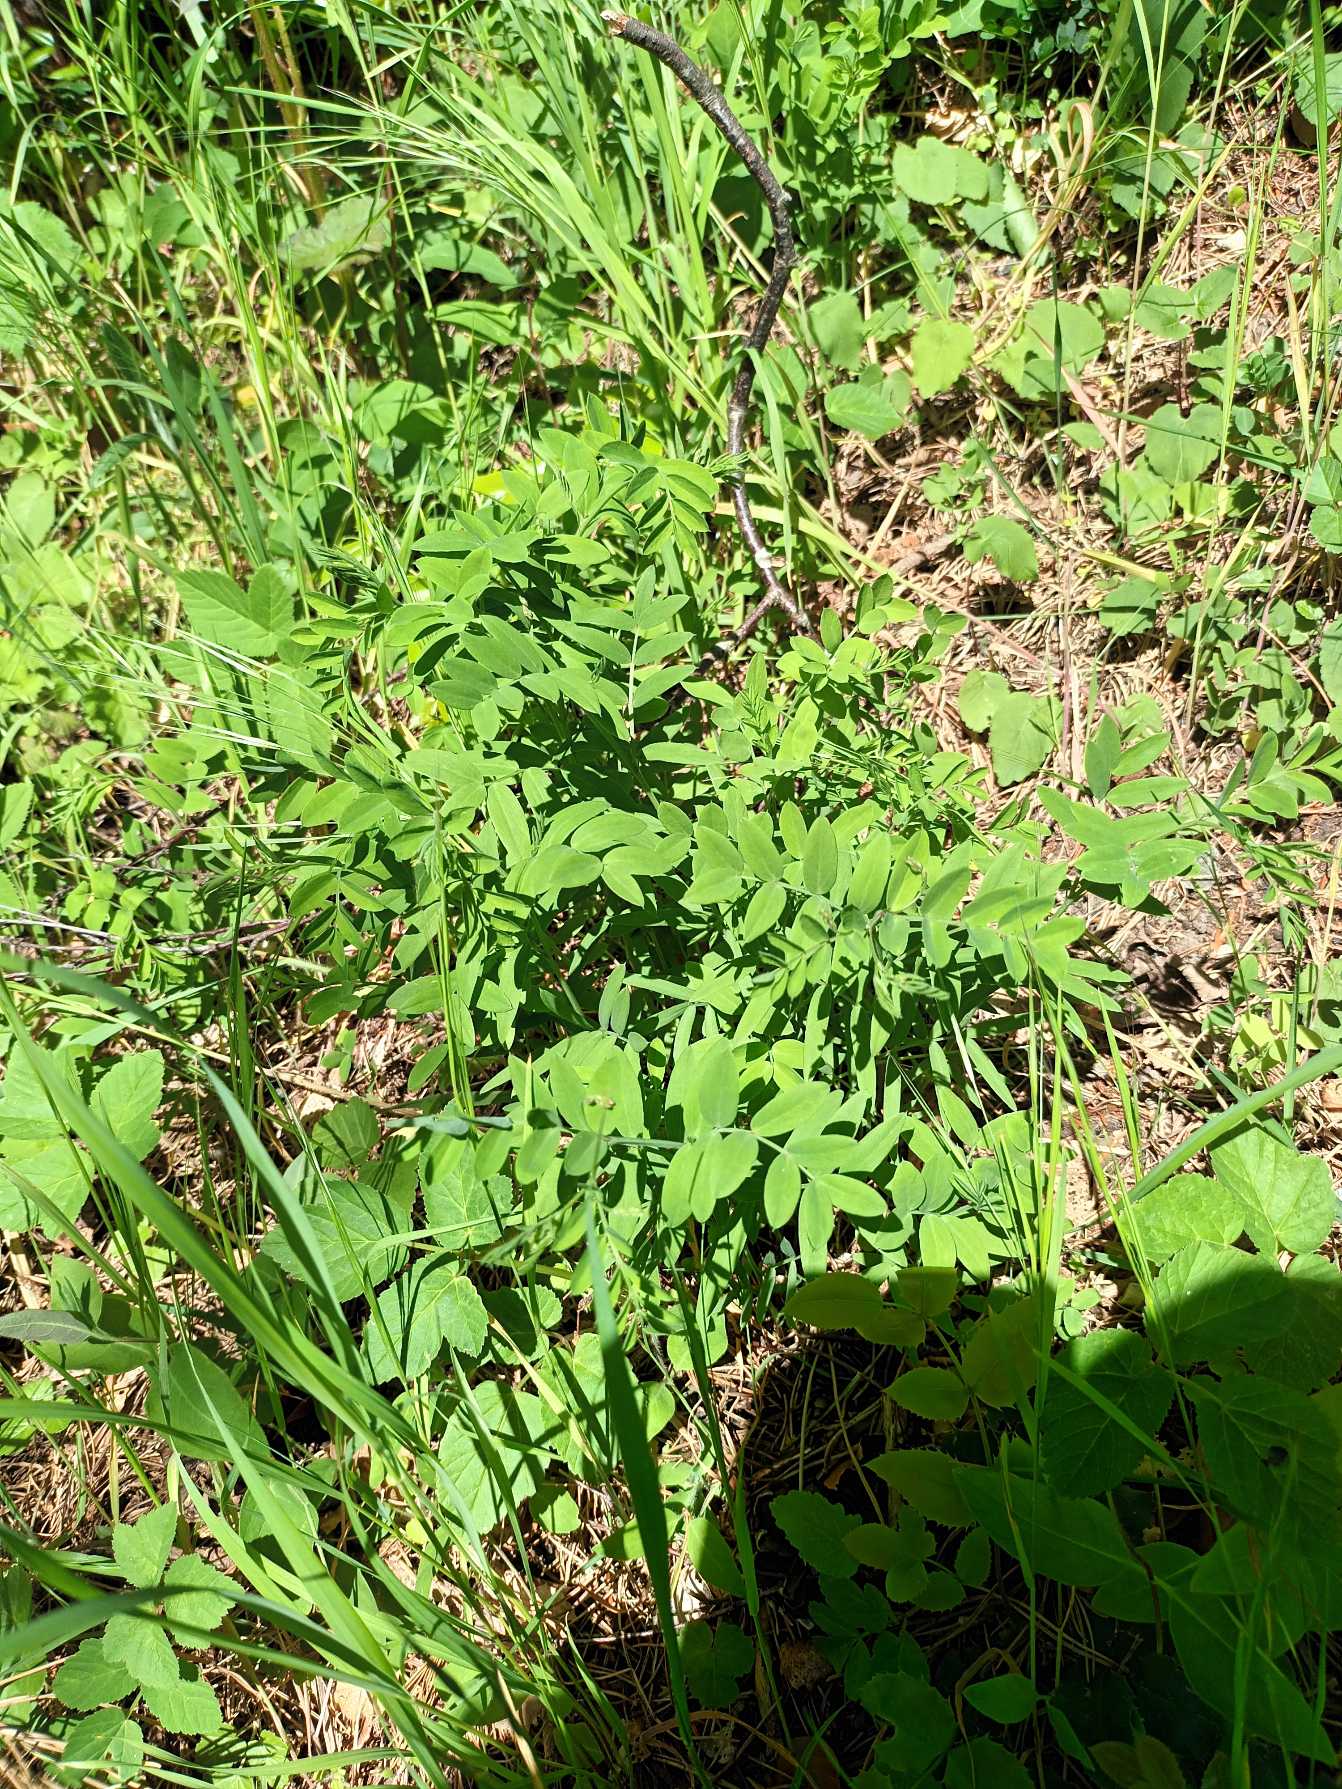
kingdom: Plantae
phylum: Tracheophyta
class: Magnoliopsida
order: Fabales
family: Fabaceae
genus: Lathyrus
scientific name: Lathyrus niger
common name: Sort fladbælg
